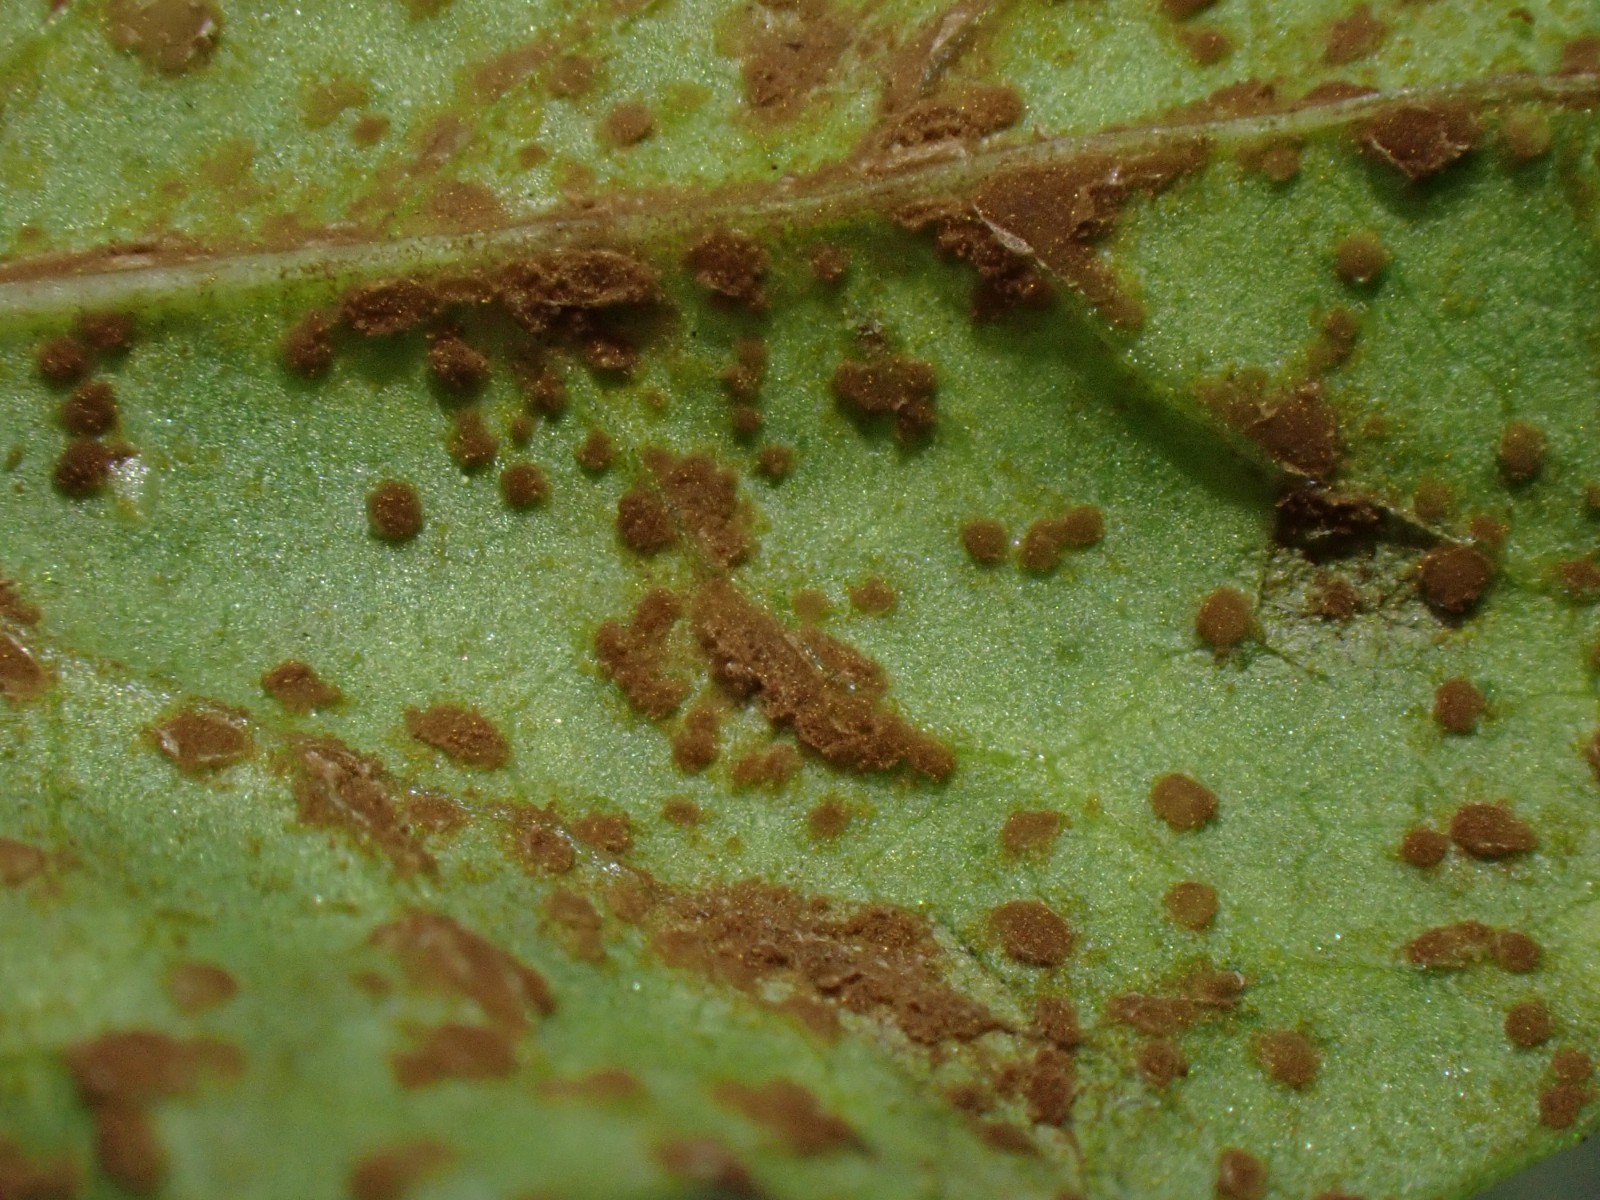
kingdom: Fungi
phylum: Basidiomycota
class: Pucciniomycetes
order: Pucciniales
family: Pucciniaceae
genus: Puccinia
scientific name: Puccinia polygoni-amphibii
